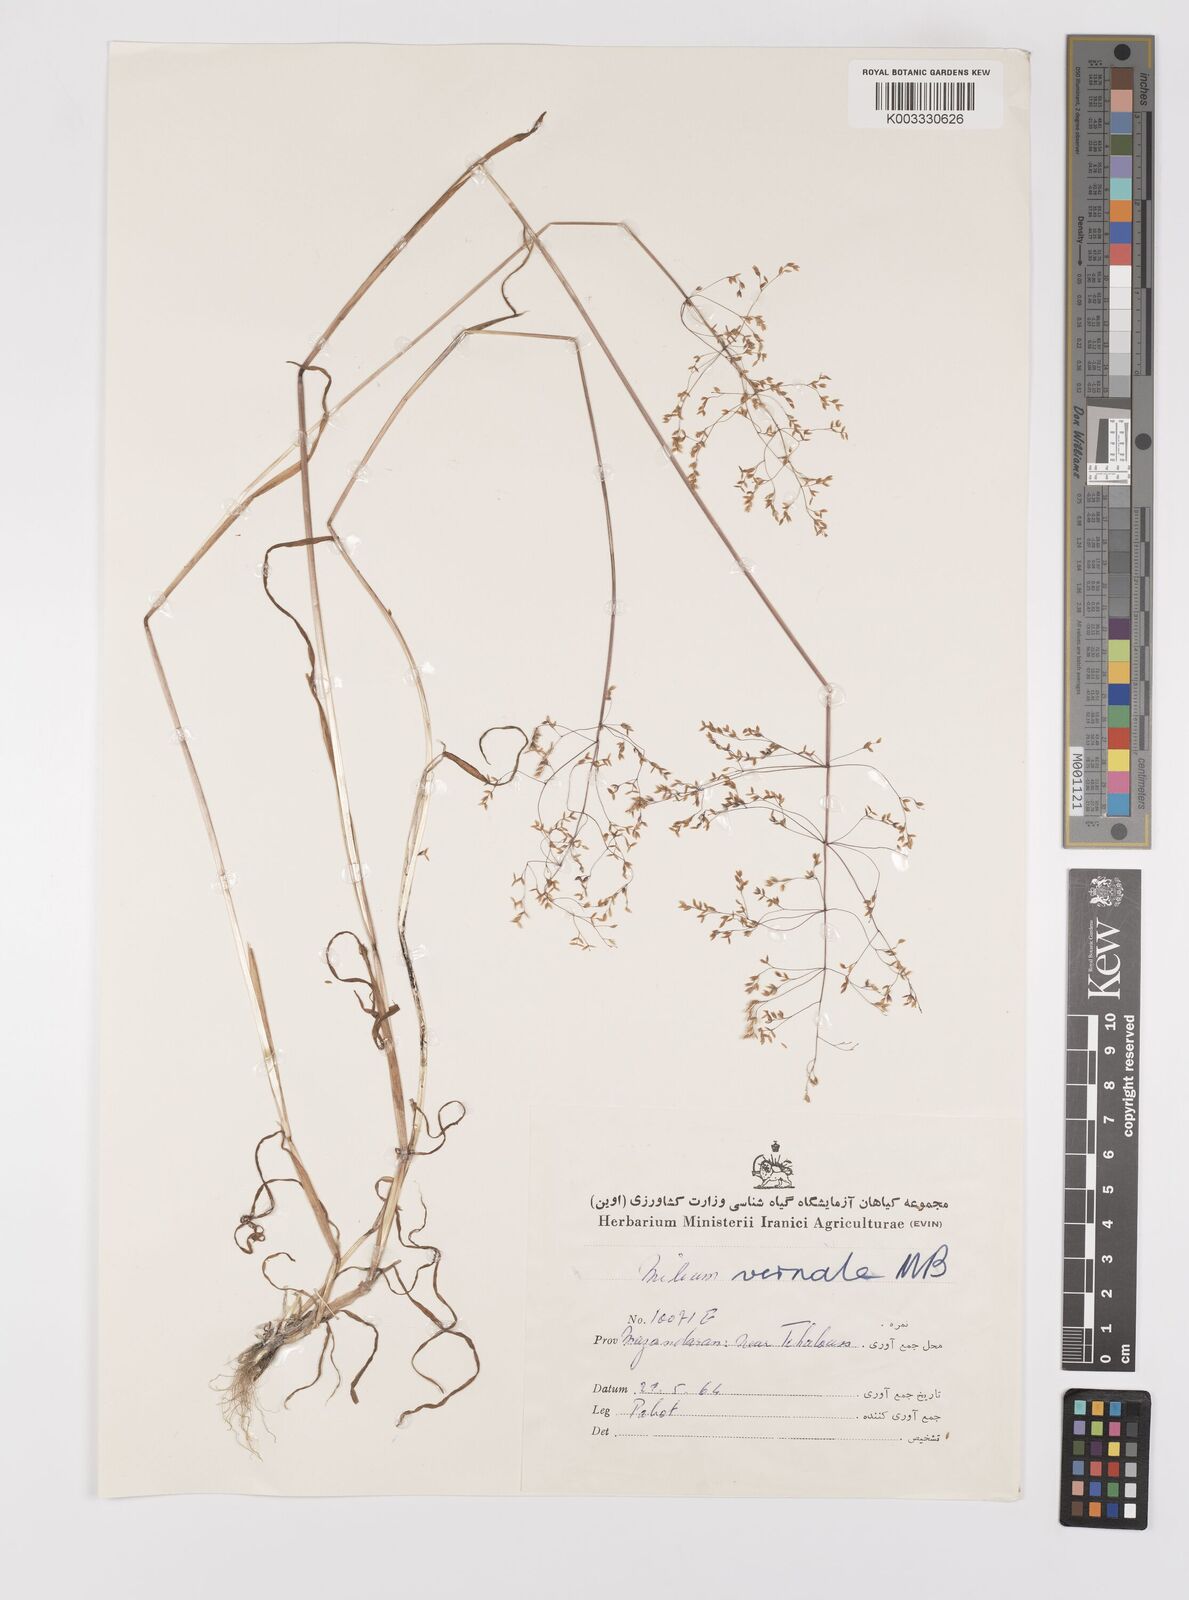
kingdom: Plantae
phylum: Tracheophyta
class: Liliopsida
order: Poales
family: Poaceae
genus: Milium
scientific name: Milium vernale
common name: Early millet
